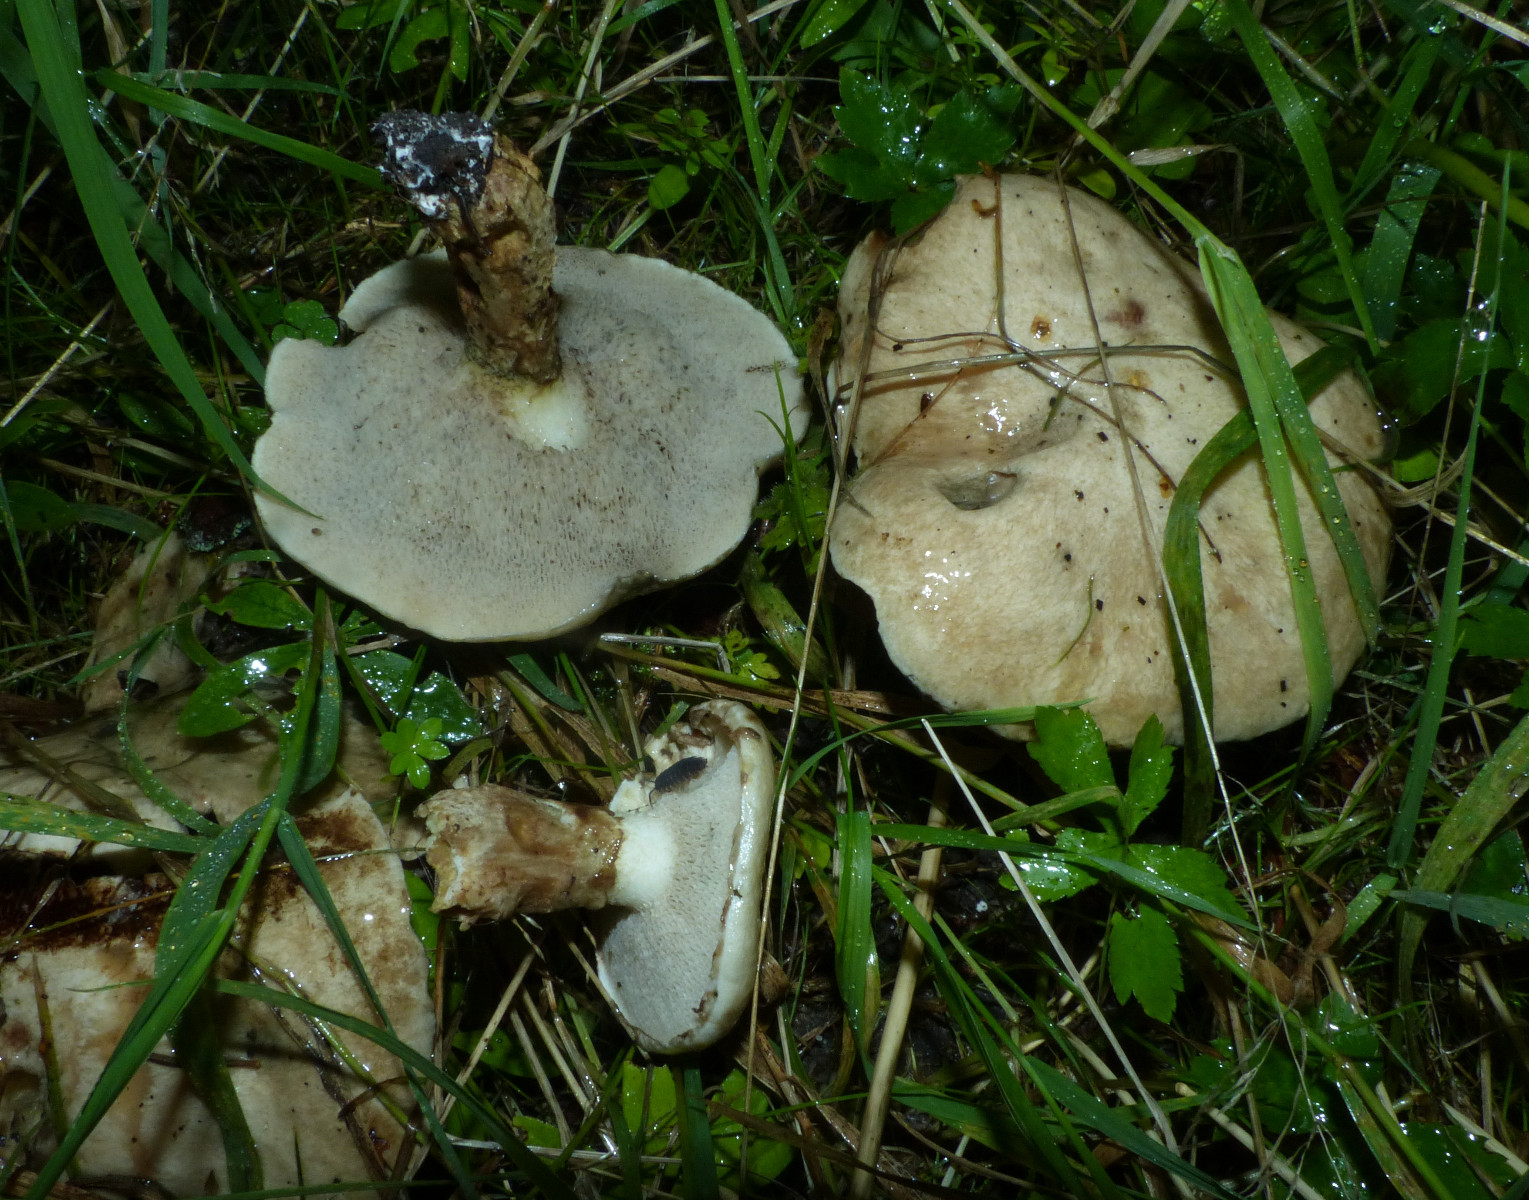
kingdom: Fungi
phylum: Basidiomycota
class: Agaricomycetes
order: Boletales
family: Suillaceae
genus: Suillus
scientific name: Suillus viscidus
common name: olivengrå slimrørhat
